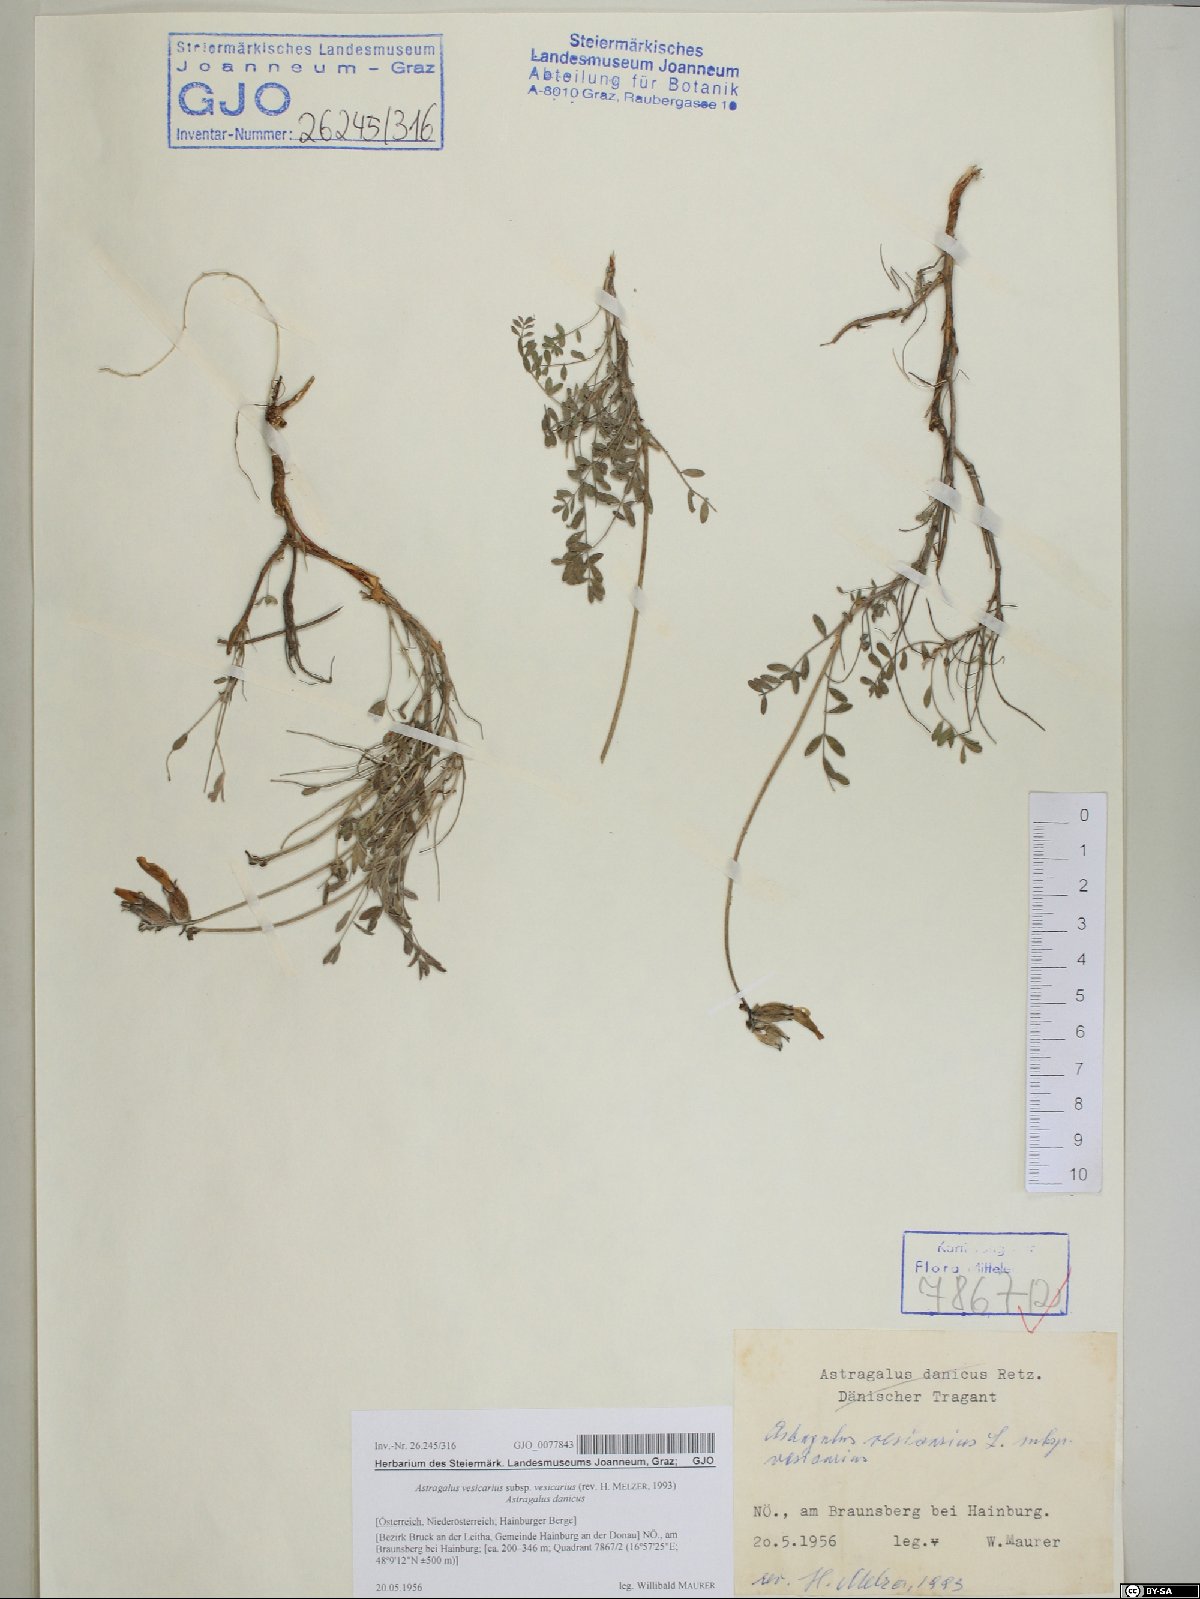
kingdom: Plantae
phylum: Tracheophyta
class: Magnoliopsida
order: Fabales
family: Fabaceae
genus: Astragalus
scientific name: Astragalus vesicarius
